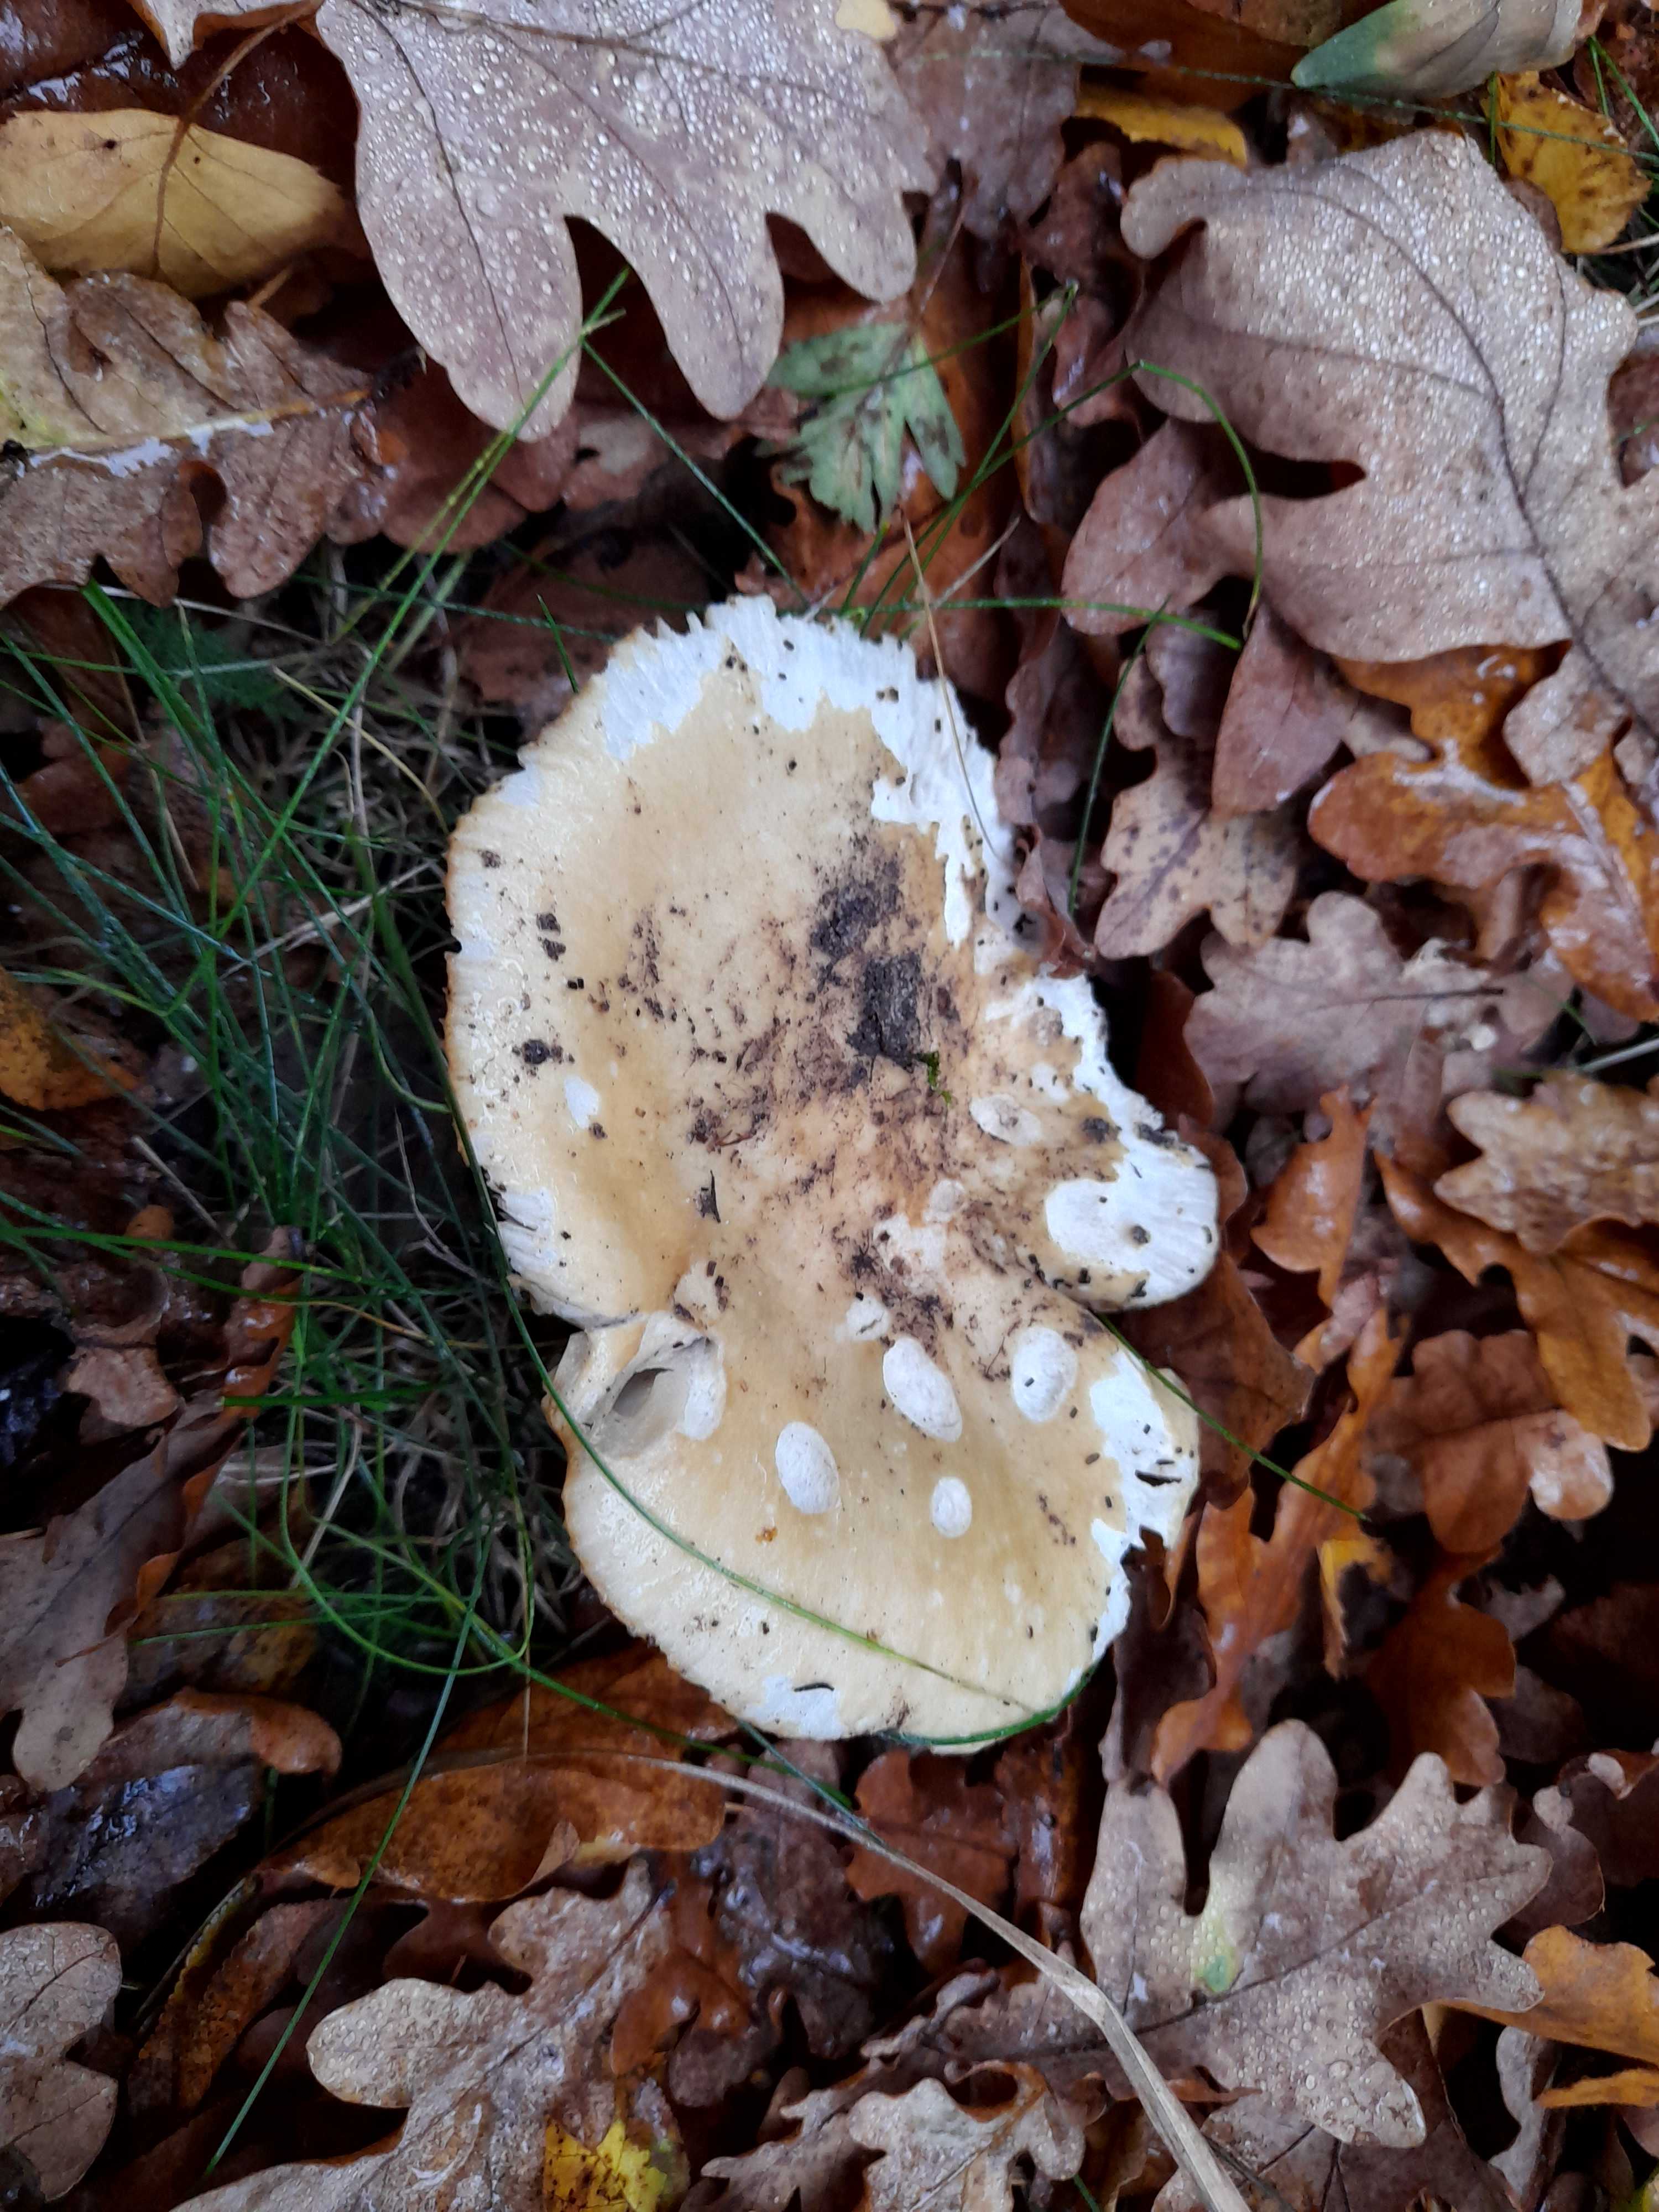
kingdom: Fungi
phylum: Basidiomycota
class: Agaricomycetes
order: Russulales
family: Russulaceae
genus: Russula
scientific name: Russula ochroleuca
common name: okkergul skørhat
